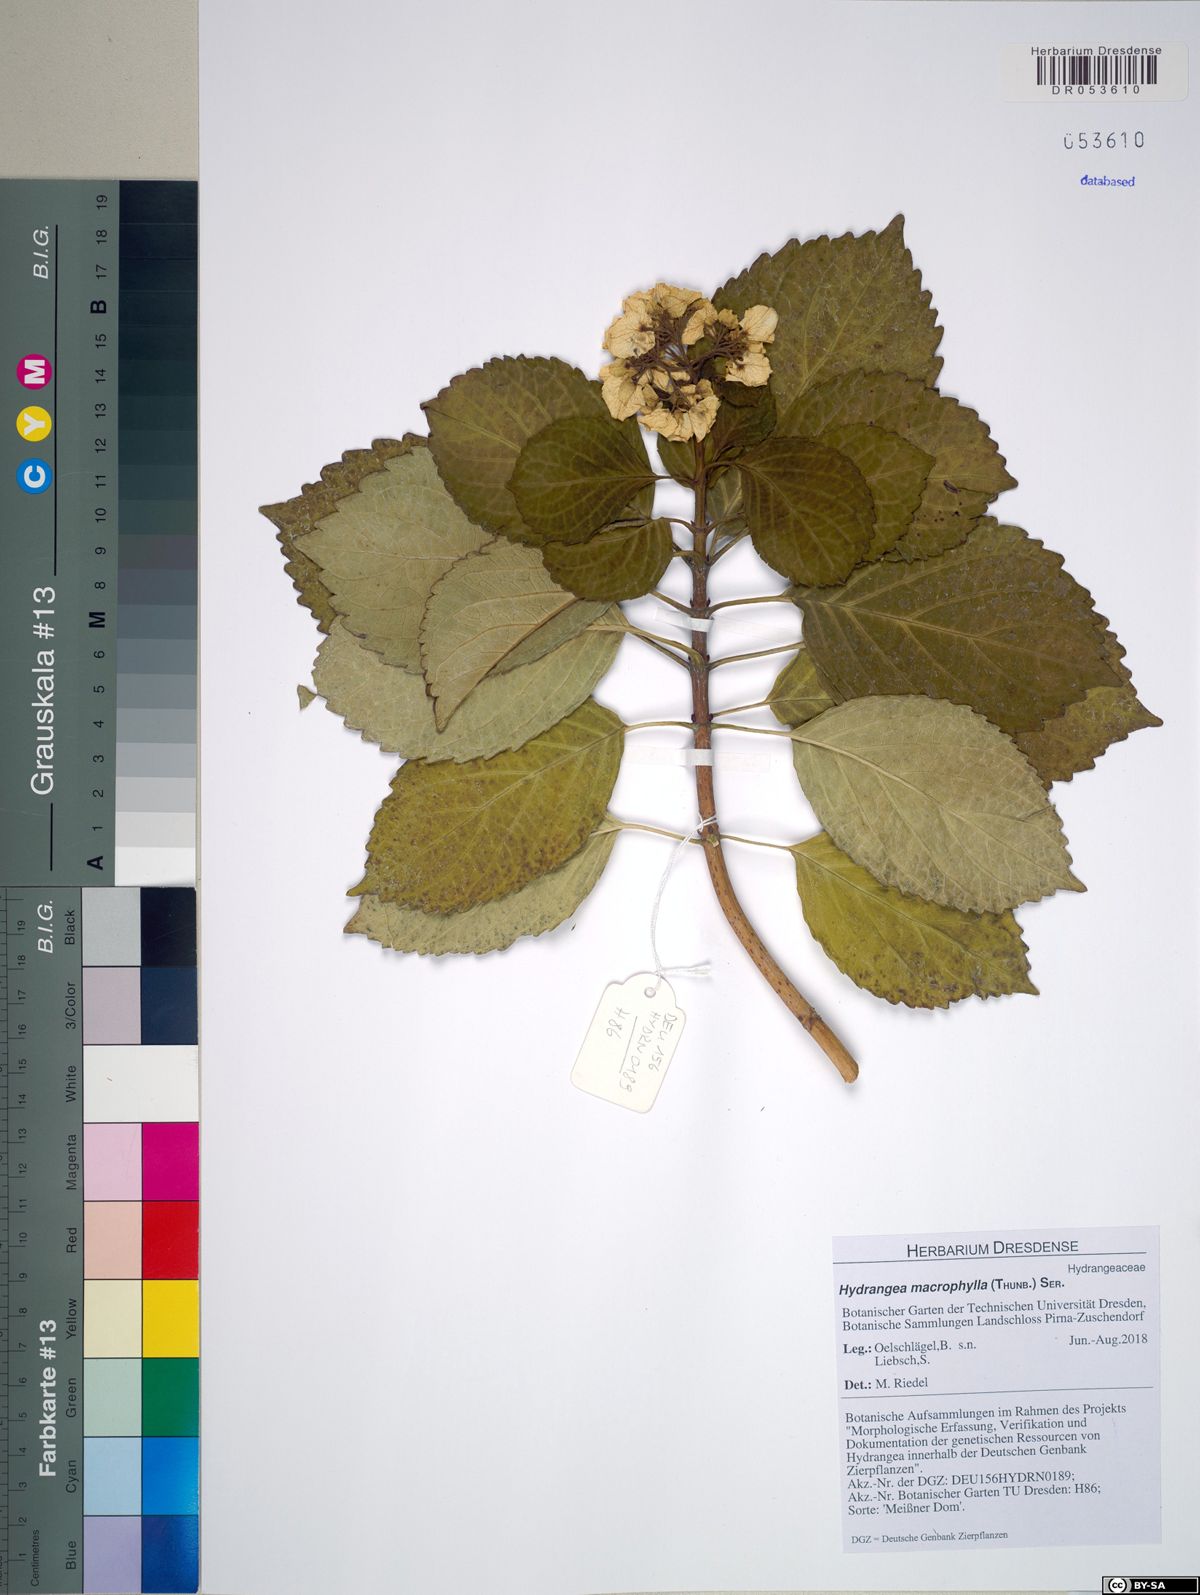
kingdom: Plantae
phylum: Tracheophyta
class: Magnoliopsida
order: Cornales
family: Hydrangeaceae
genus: Hydrangea
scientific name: Hydrangea macrophylla
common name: Hydrangea
